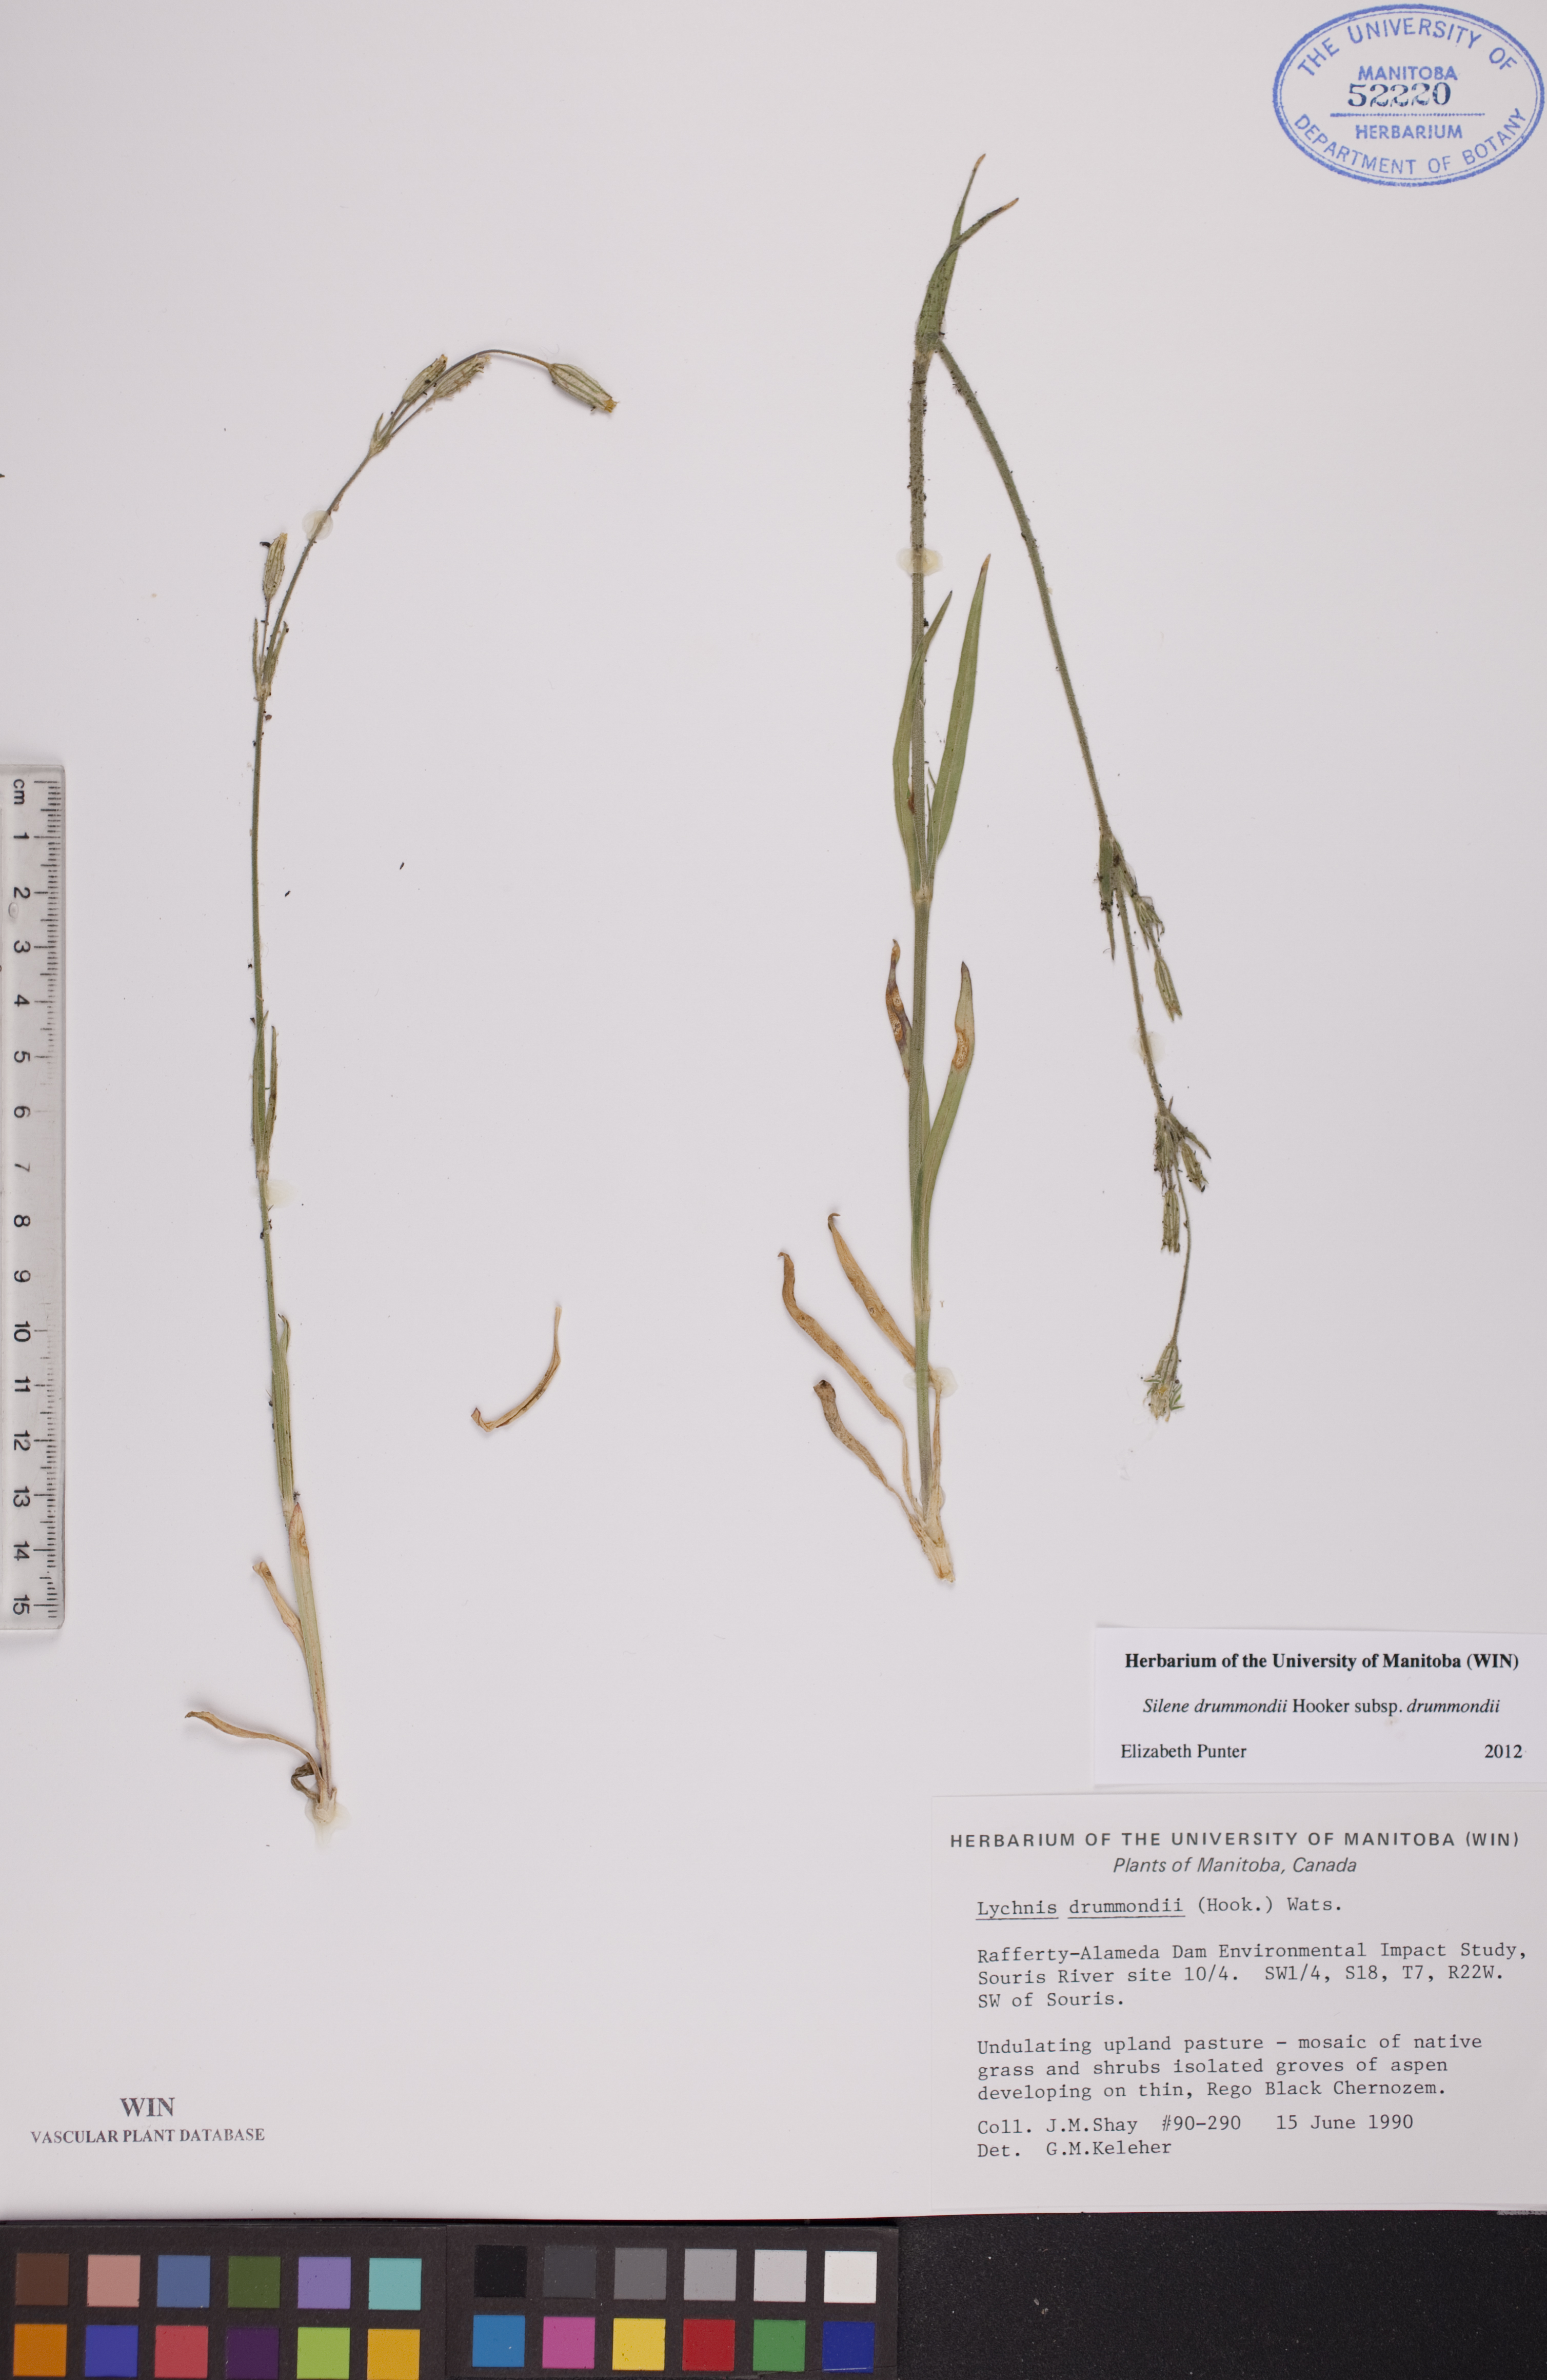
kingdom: Plantae
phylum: Tracheophyta
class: Magnoliopsida
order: Caryophyllales
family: Caryophyllaceae
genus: Silene
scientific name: Silene drummondii
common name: Drummond's catchfly
